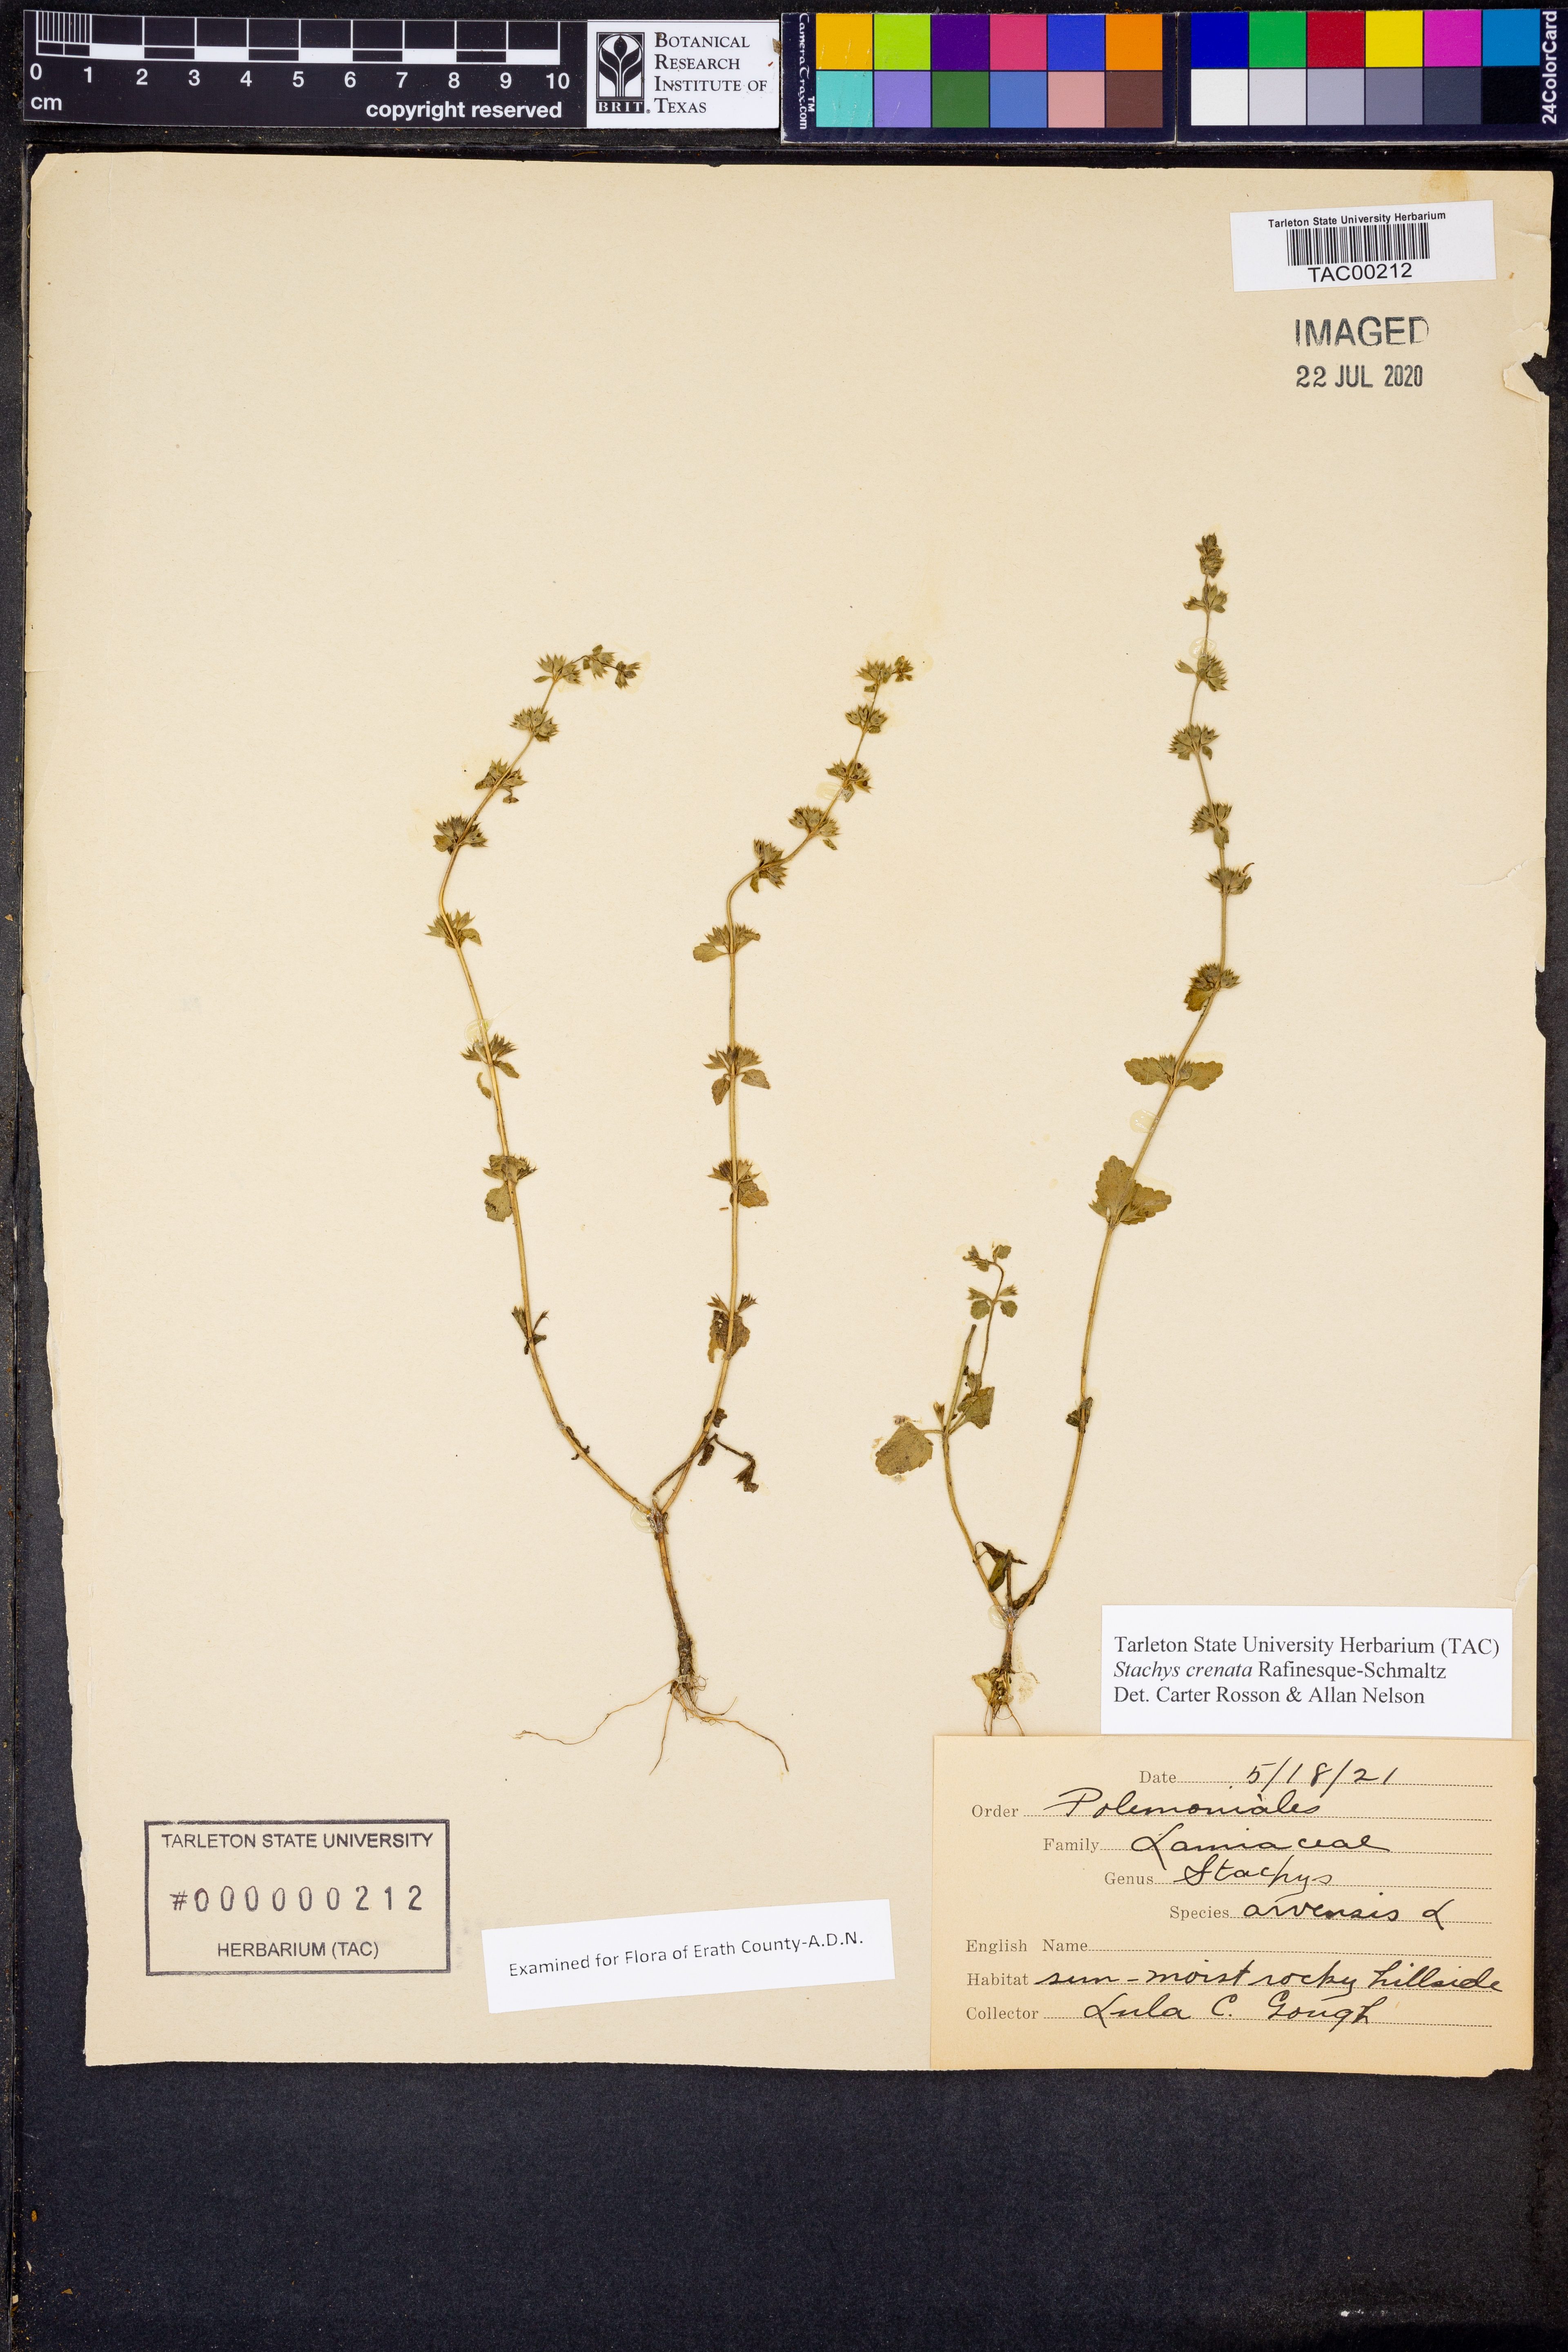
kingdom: Plantae
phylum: Tracheophyta
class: Magnoliopsida
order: Lamiales
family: Lamiaceae
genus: Stachys
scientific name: Stachys agraria
